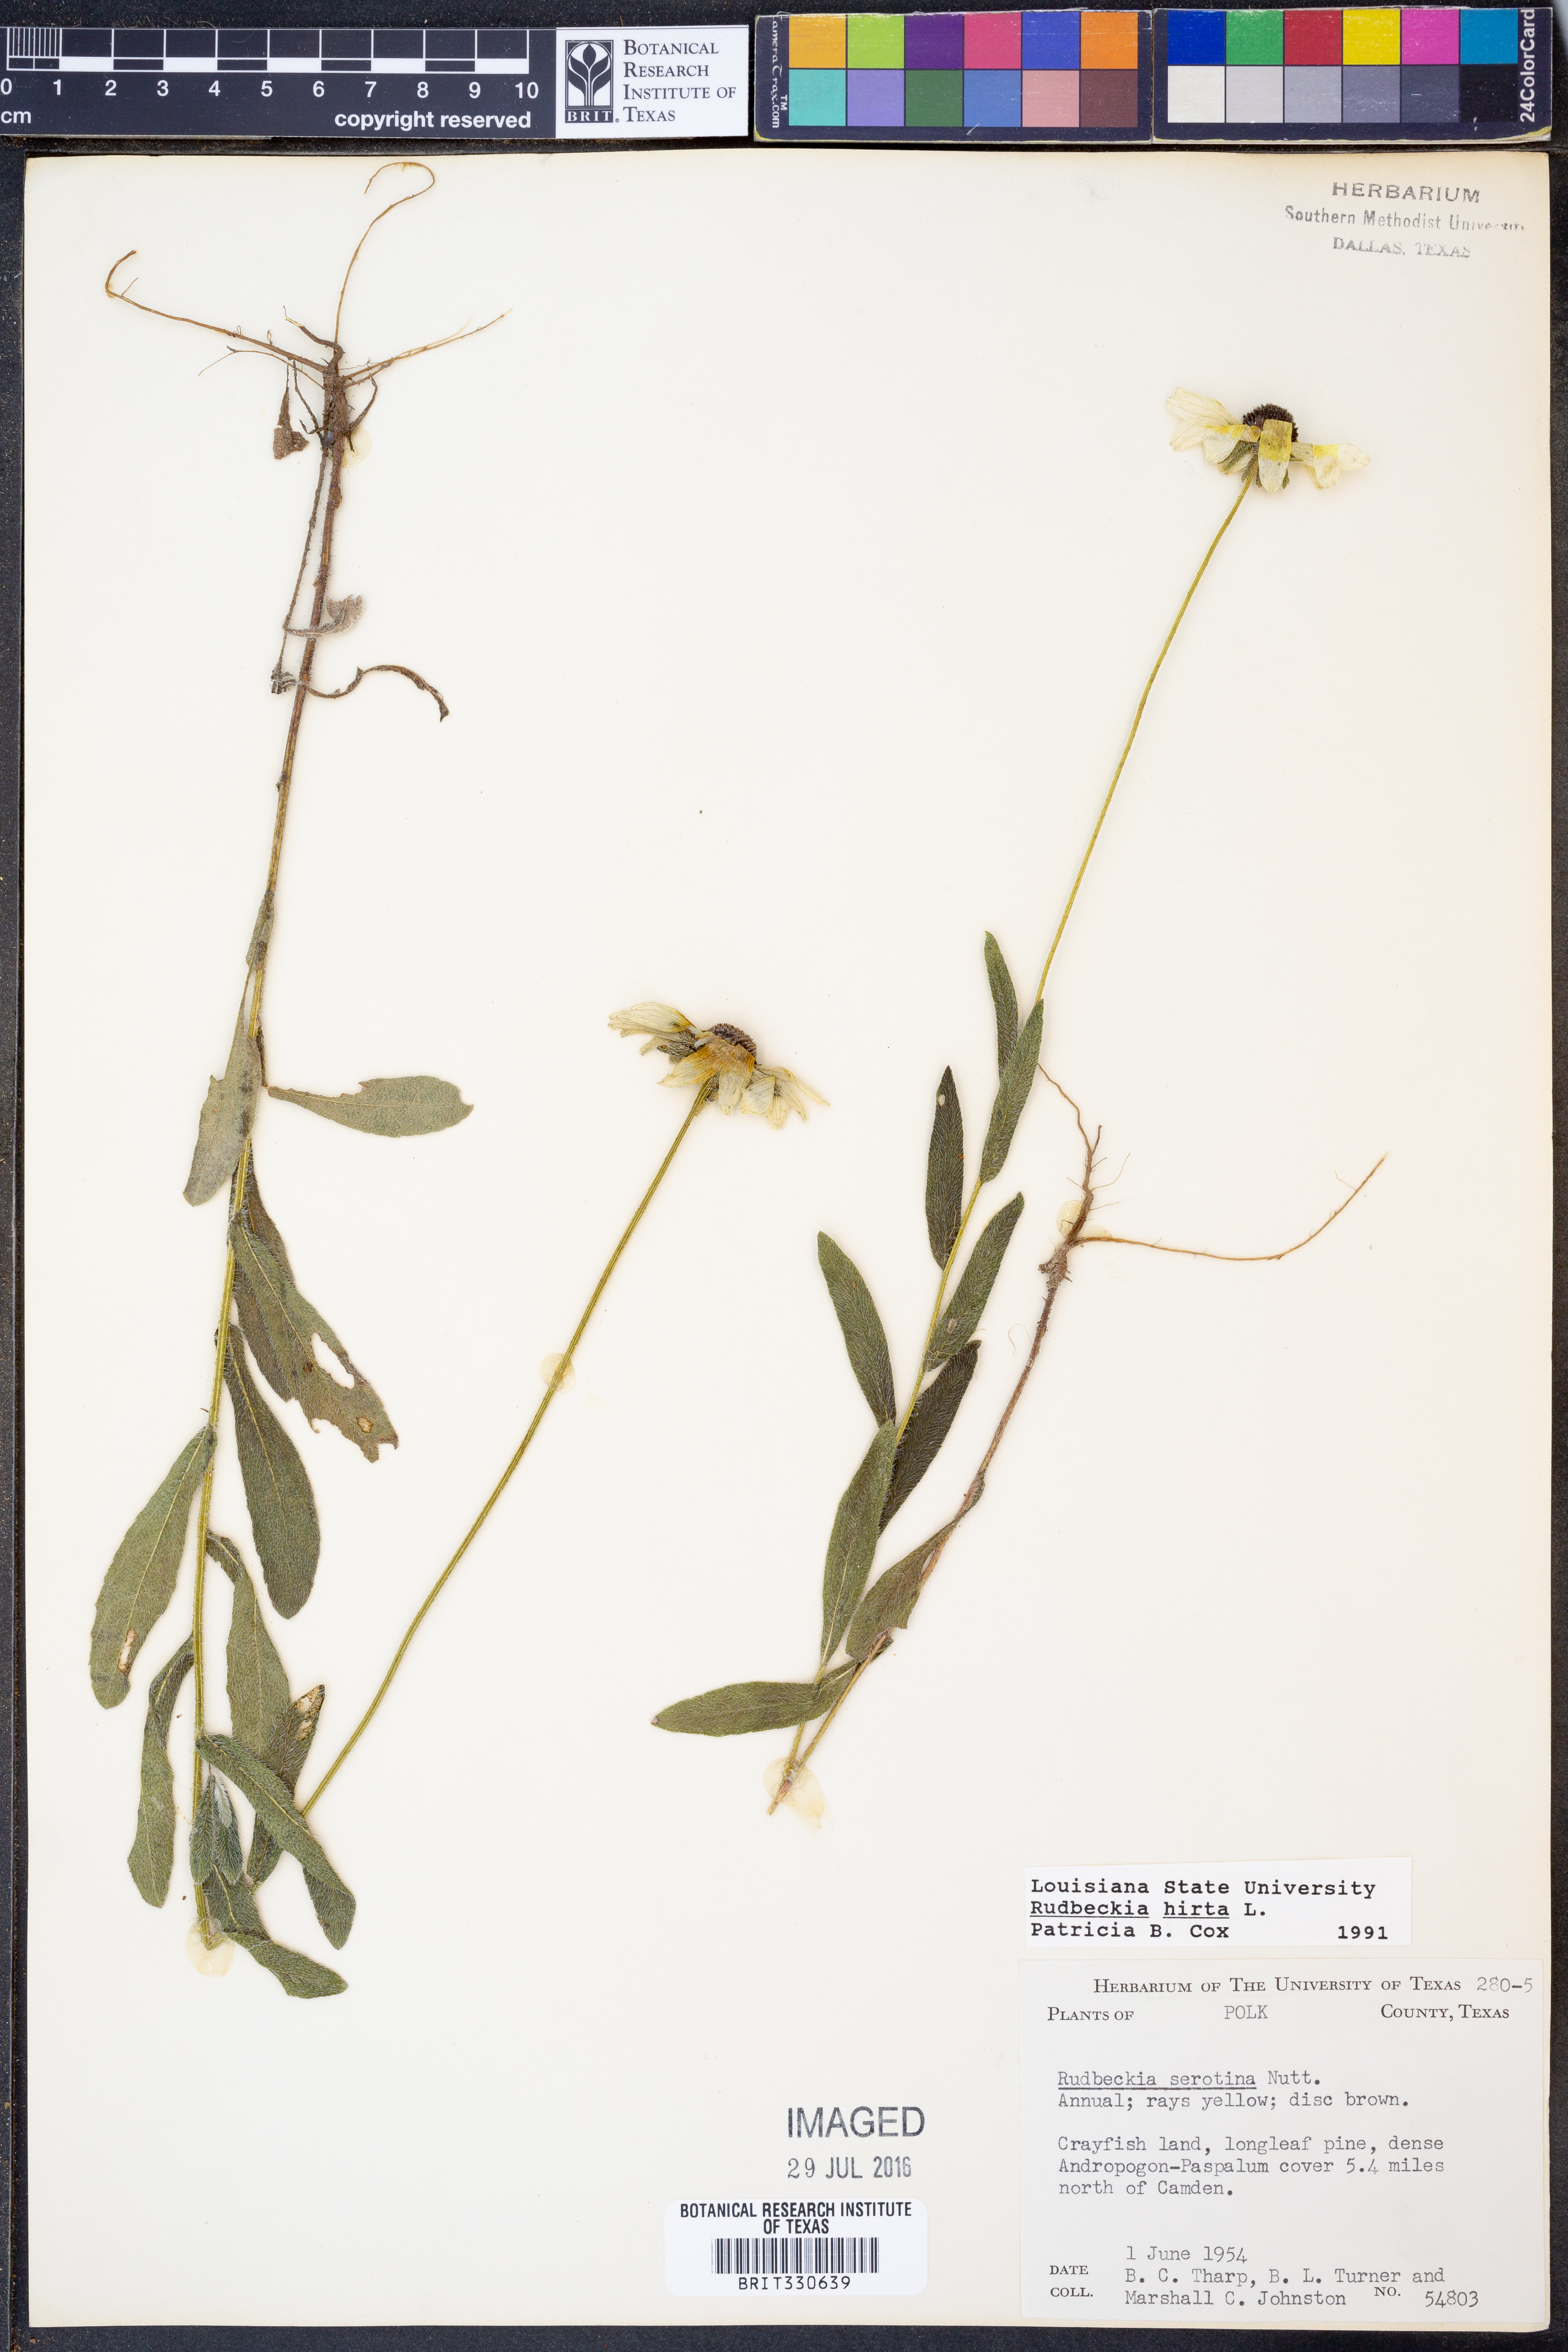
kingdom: Plantae
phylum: Tracheophyta
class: Magnoliopsida
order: Asterales
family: Asteraceae
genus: Rudbeckia
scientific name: Rudbeckia hirta
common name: Black-eyed-susan
